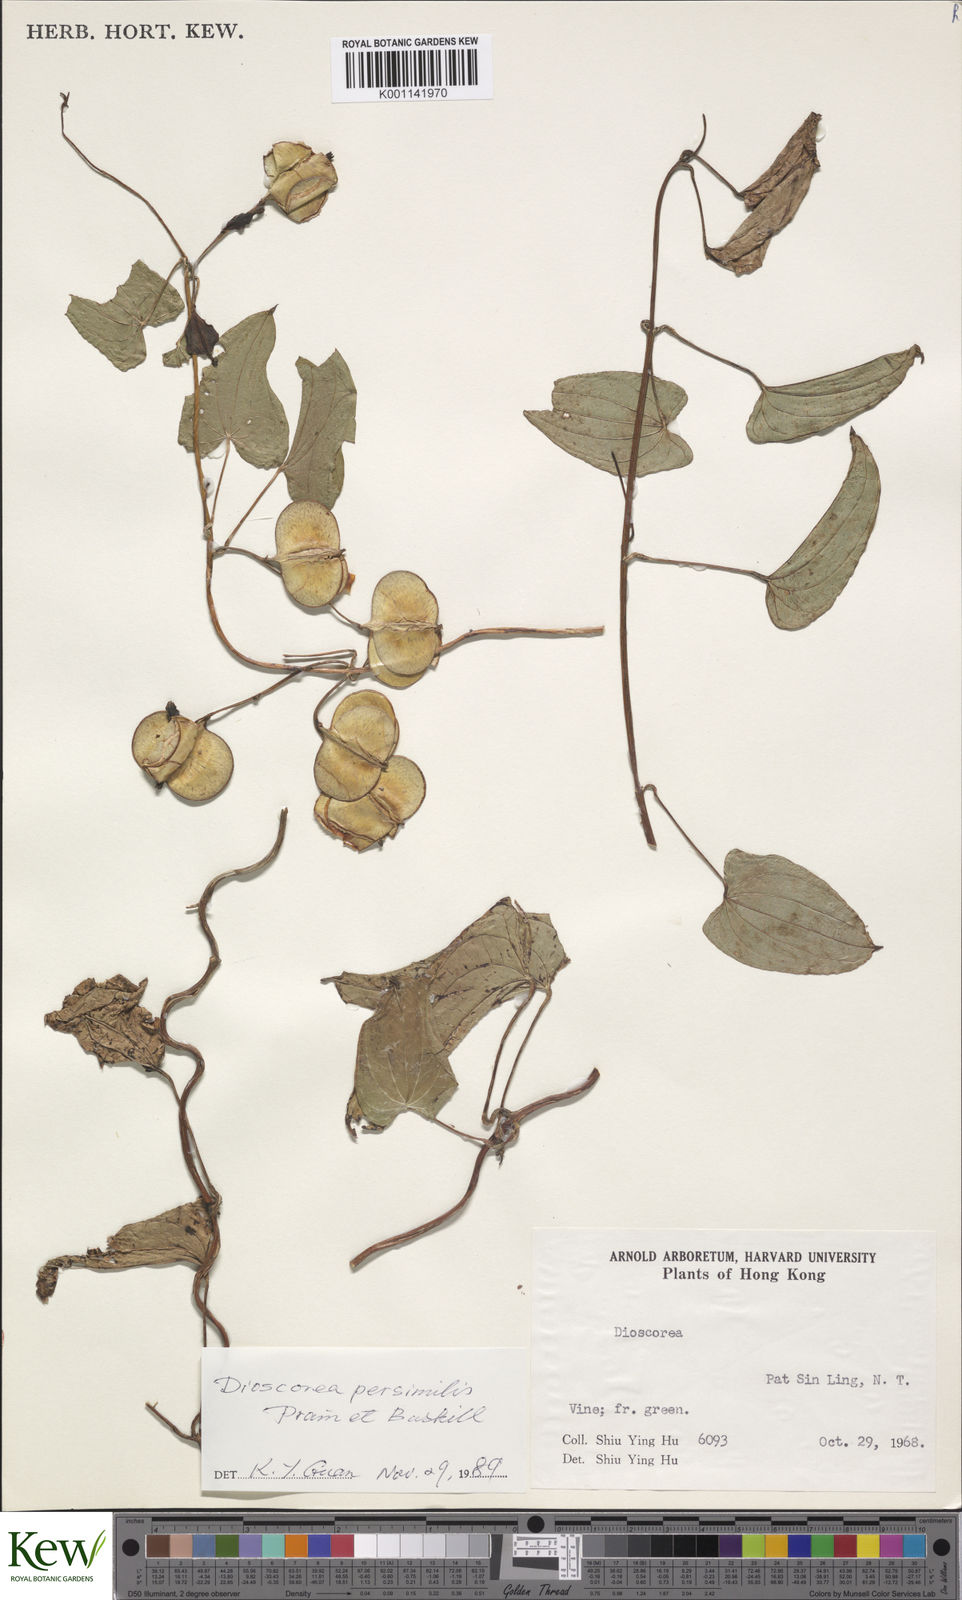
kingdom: Plantae
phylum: Tracheophyta
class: Liliopsida
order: Dioscoreales
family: Dioscoreaceae
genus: Dioscorea
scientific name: Dioscorea hamiltonii
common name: Mountain yam
